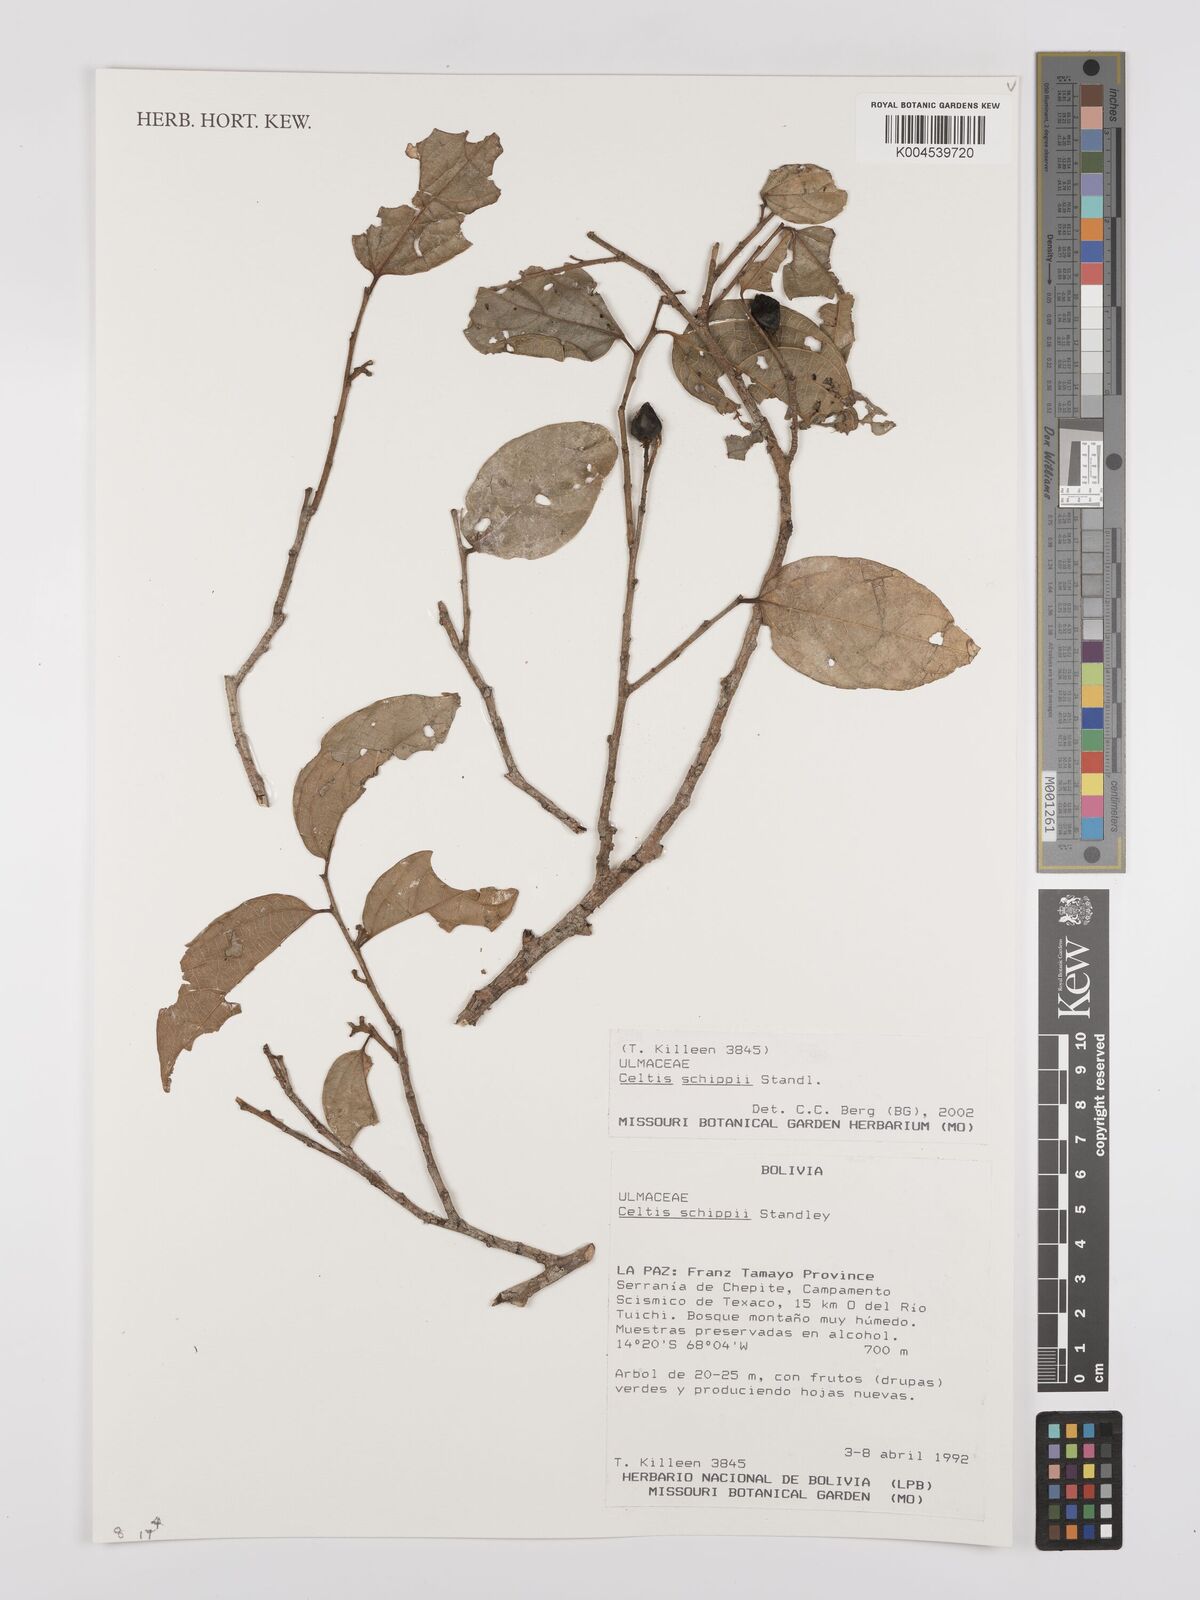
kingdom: Plantae
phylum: Tracheophyta
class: Magnoliopsida
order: Rosales
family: Cannabaceae
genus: Celtis
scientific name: Celtis schippii
